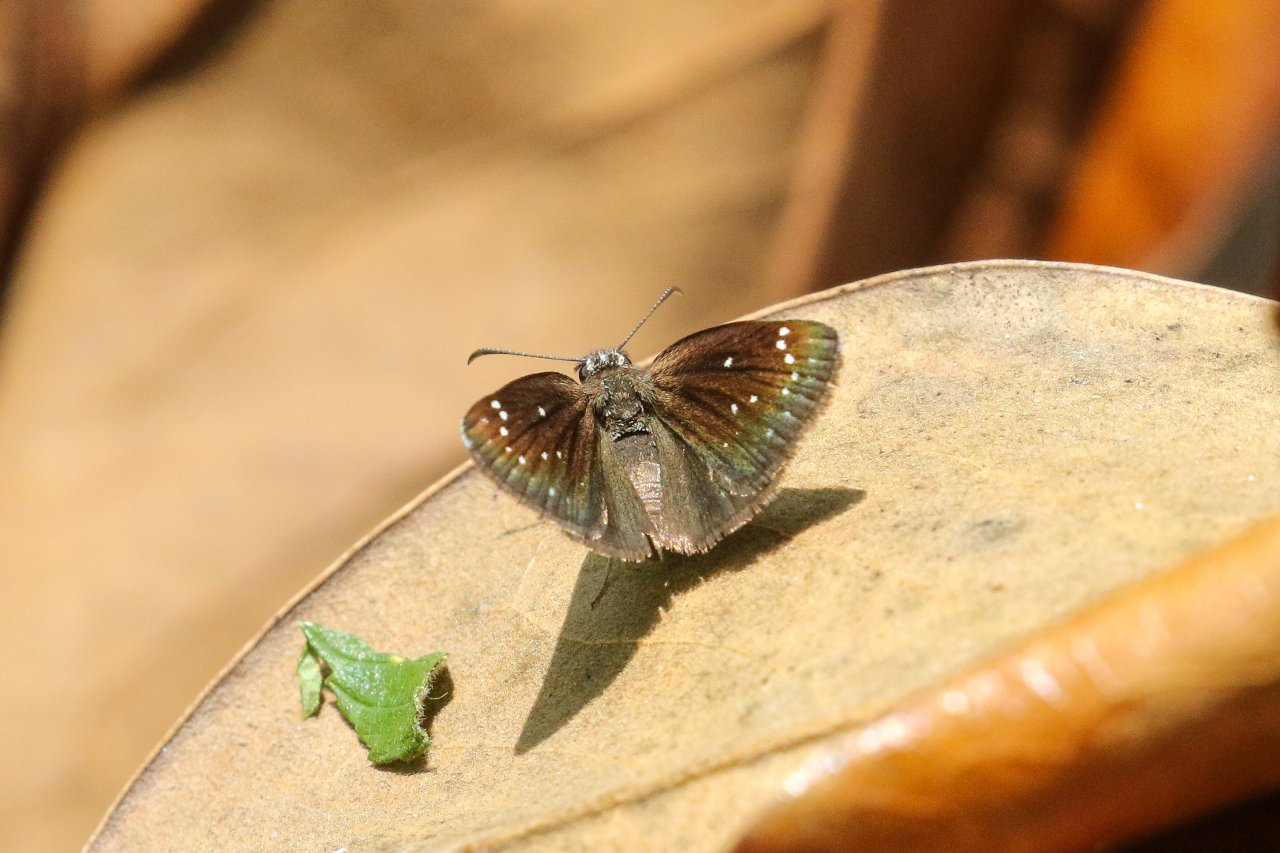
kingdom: Animalia
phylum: Arthropoda
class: Insecta
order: Lepidoptera
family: Hesperiidae
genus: Pholisora
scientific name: Pholisora catullus
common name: Common Sootywing
